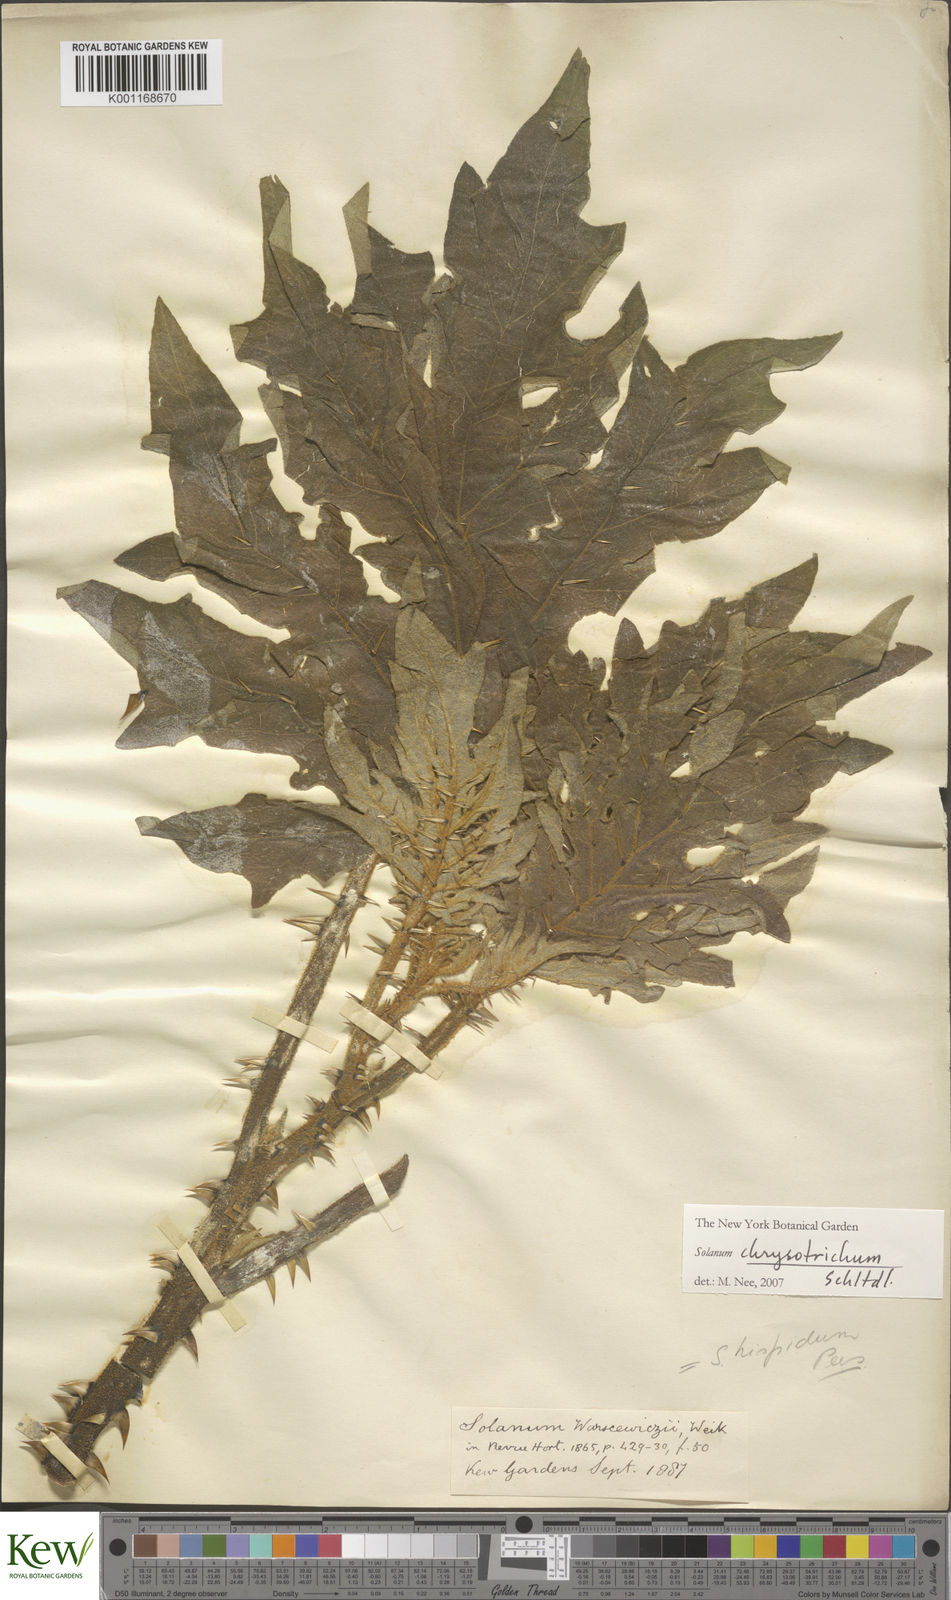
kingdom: Plantae
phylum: Tracheophyta
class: Magnoliopsida
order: Solanales
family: Solanaceae
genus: Solanum
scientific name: Solanum chrysotrichum
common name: Nightshade
